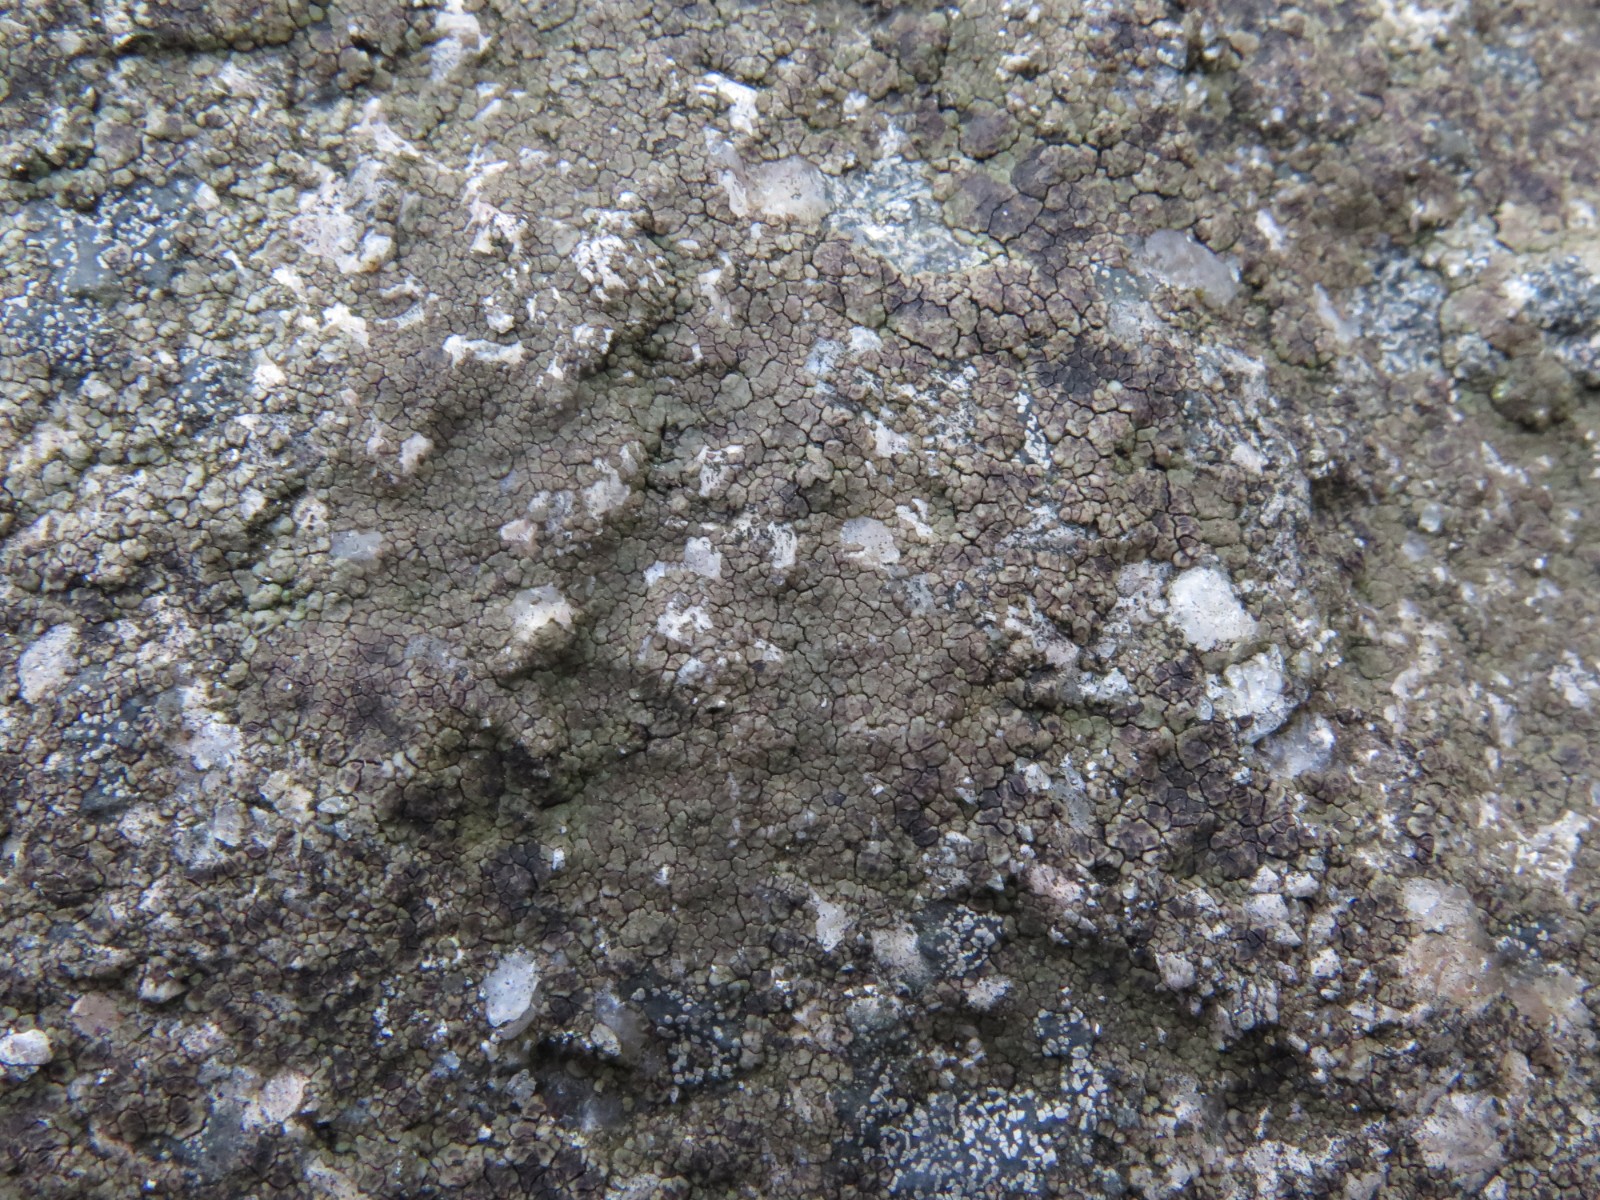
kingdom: Fungi
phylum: Ascomycota
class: Lecanoromycetes
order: Acarosporales
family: Acarosporaceae
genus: Acarospora
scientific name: Acarospora fuscata
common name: brun småsporelav
